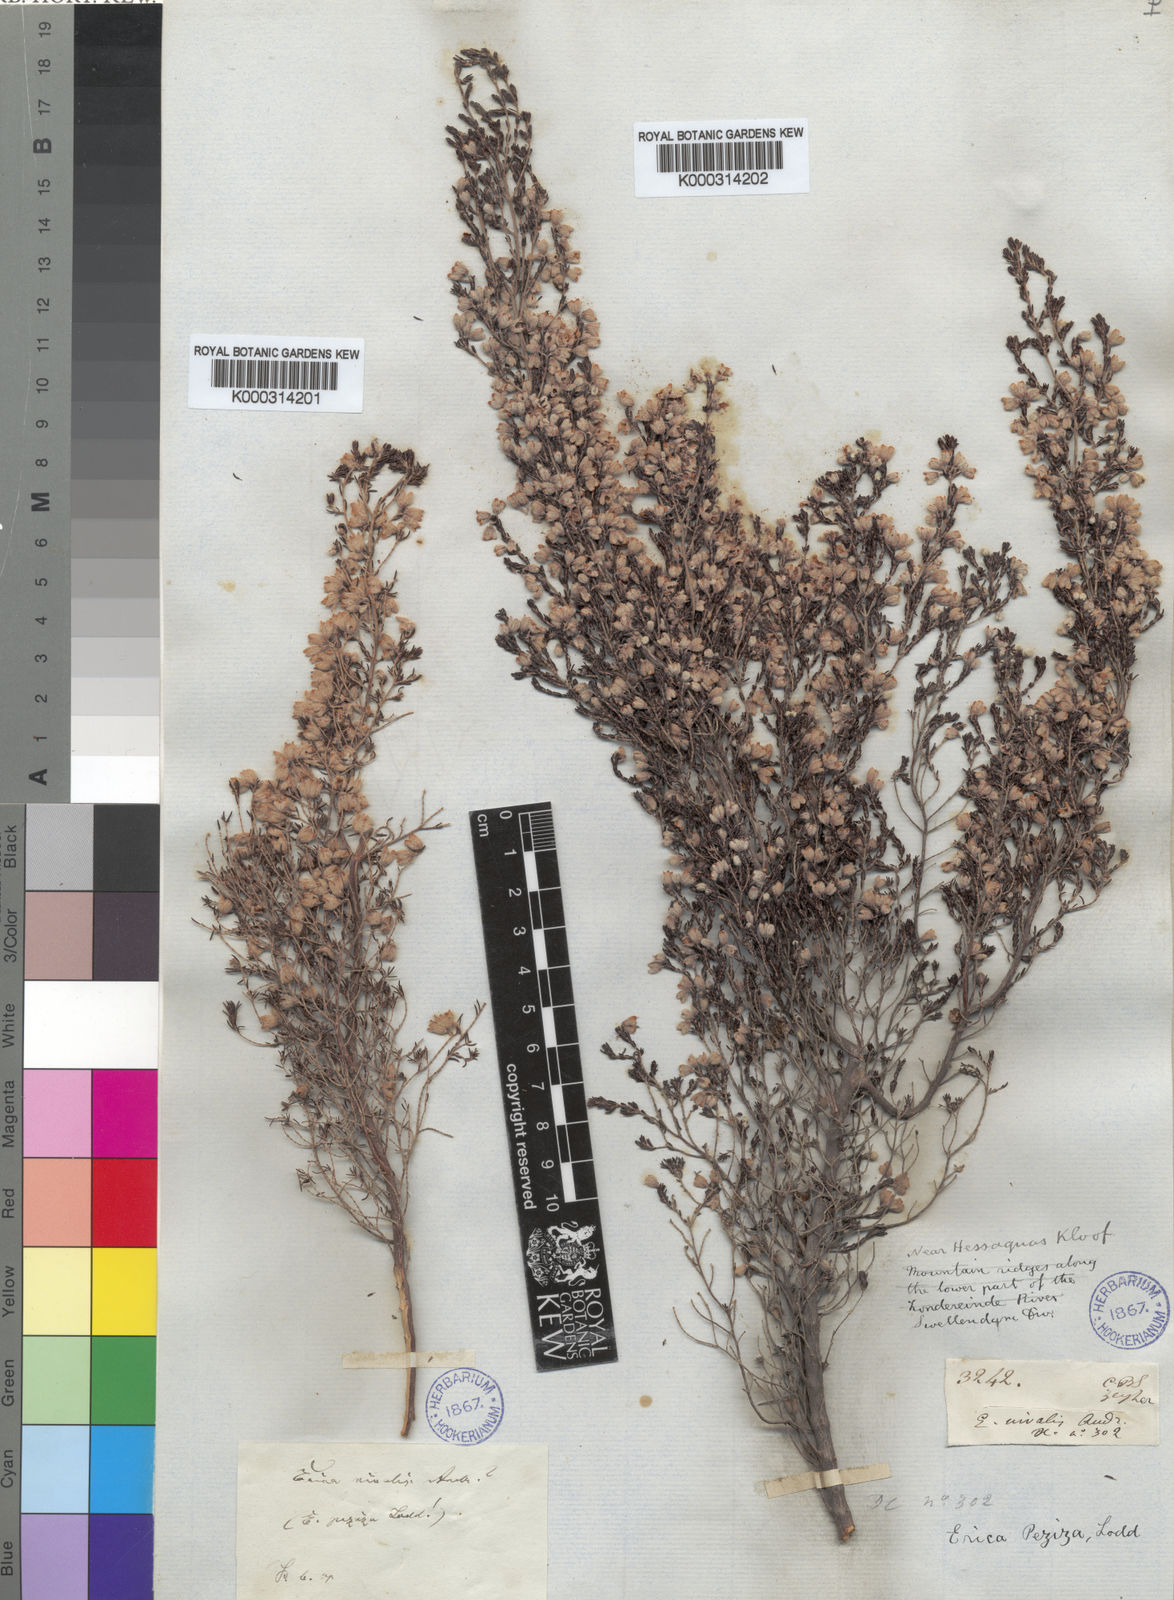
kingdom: Plantae
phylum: Tracheophyta
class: Magnoliopsida
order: Ericales
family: Ericaceae
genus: Erica
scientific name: Erica
